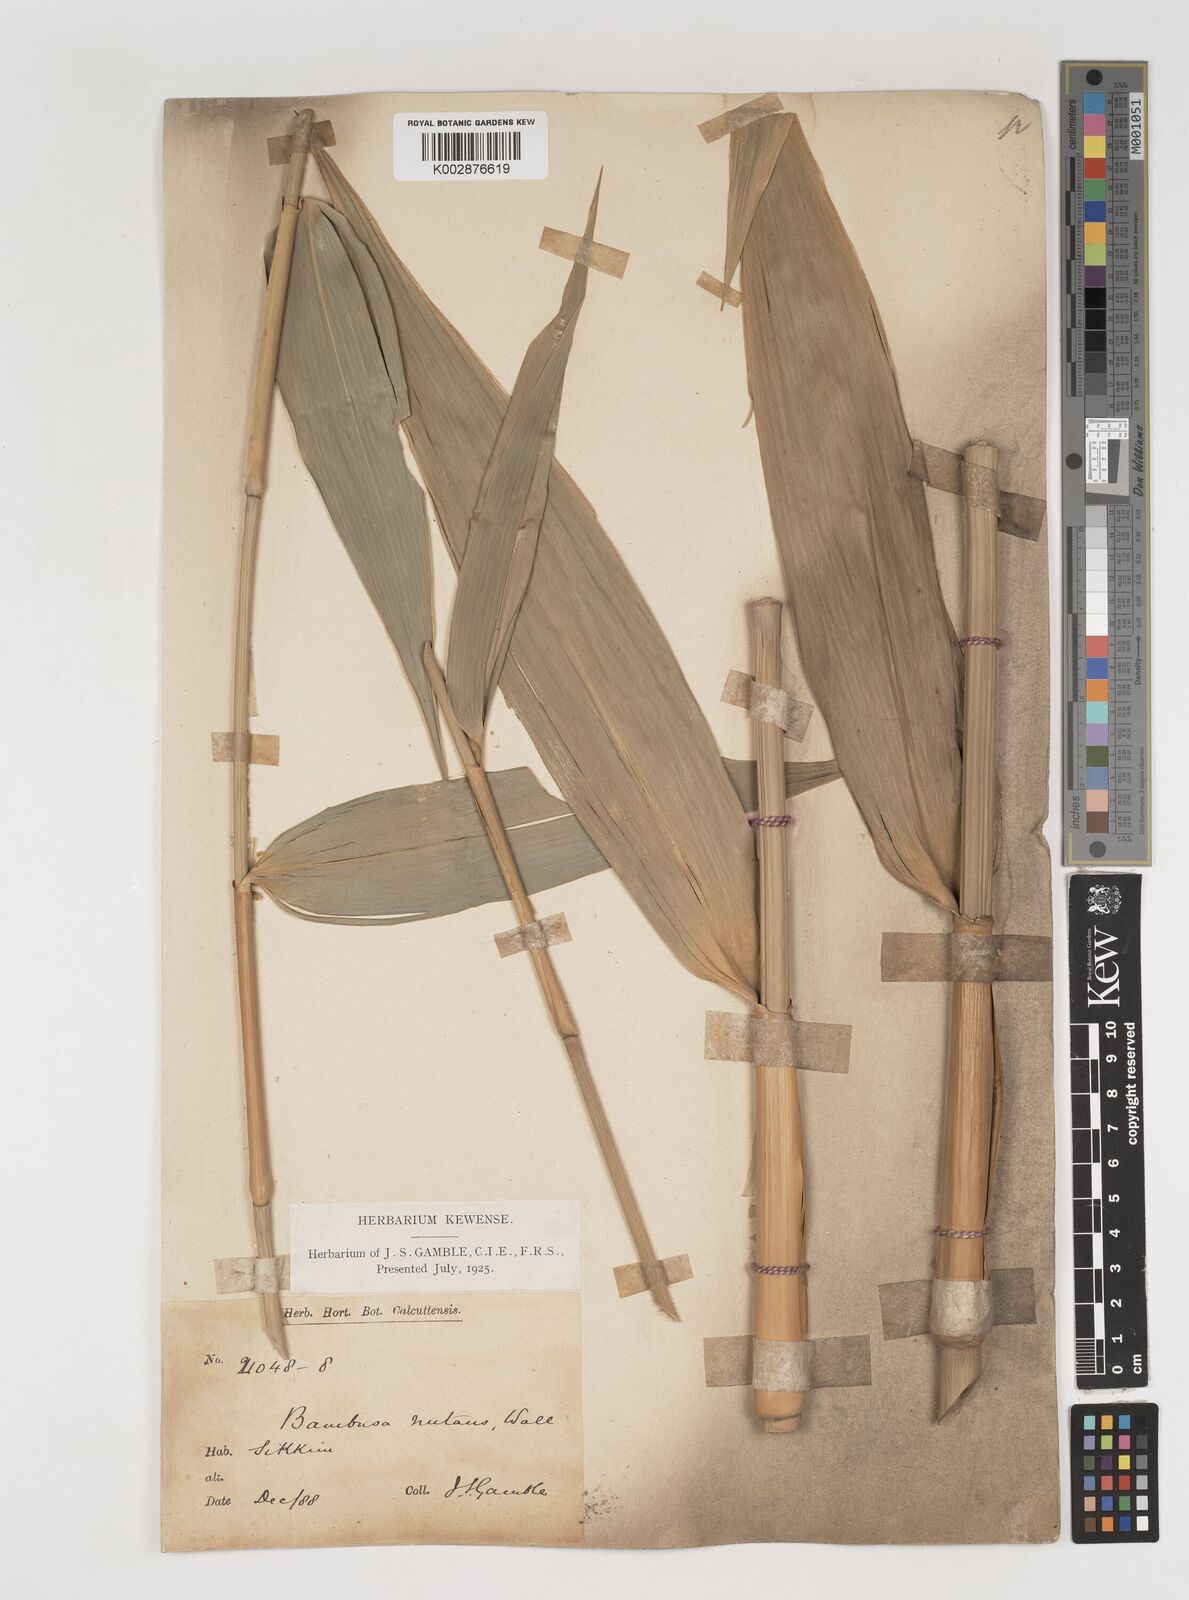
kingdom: Plantae
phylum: Tracheophyta
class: Liliopsida
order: Poales
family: Poaceae
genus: Bambusa
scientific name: Bambusa nutans
